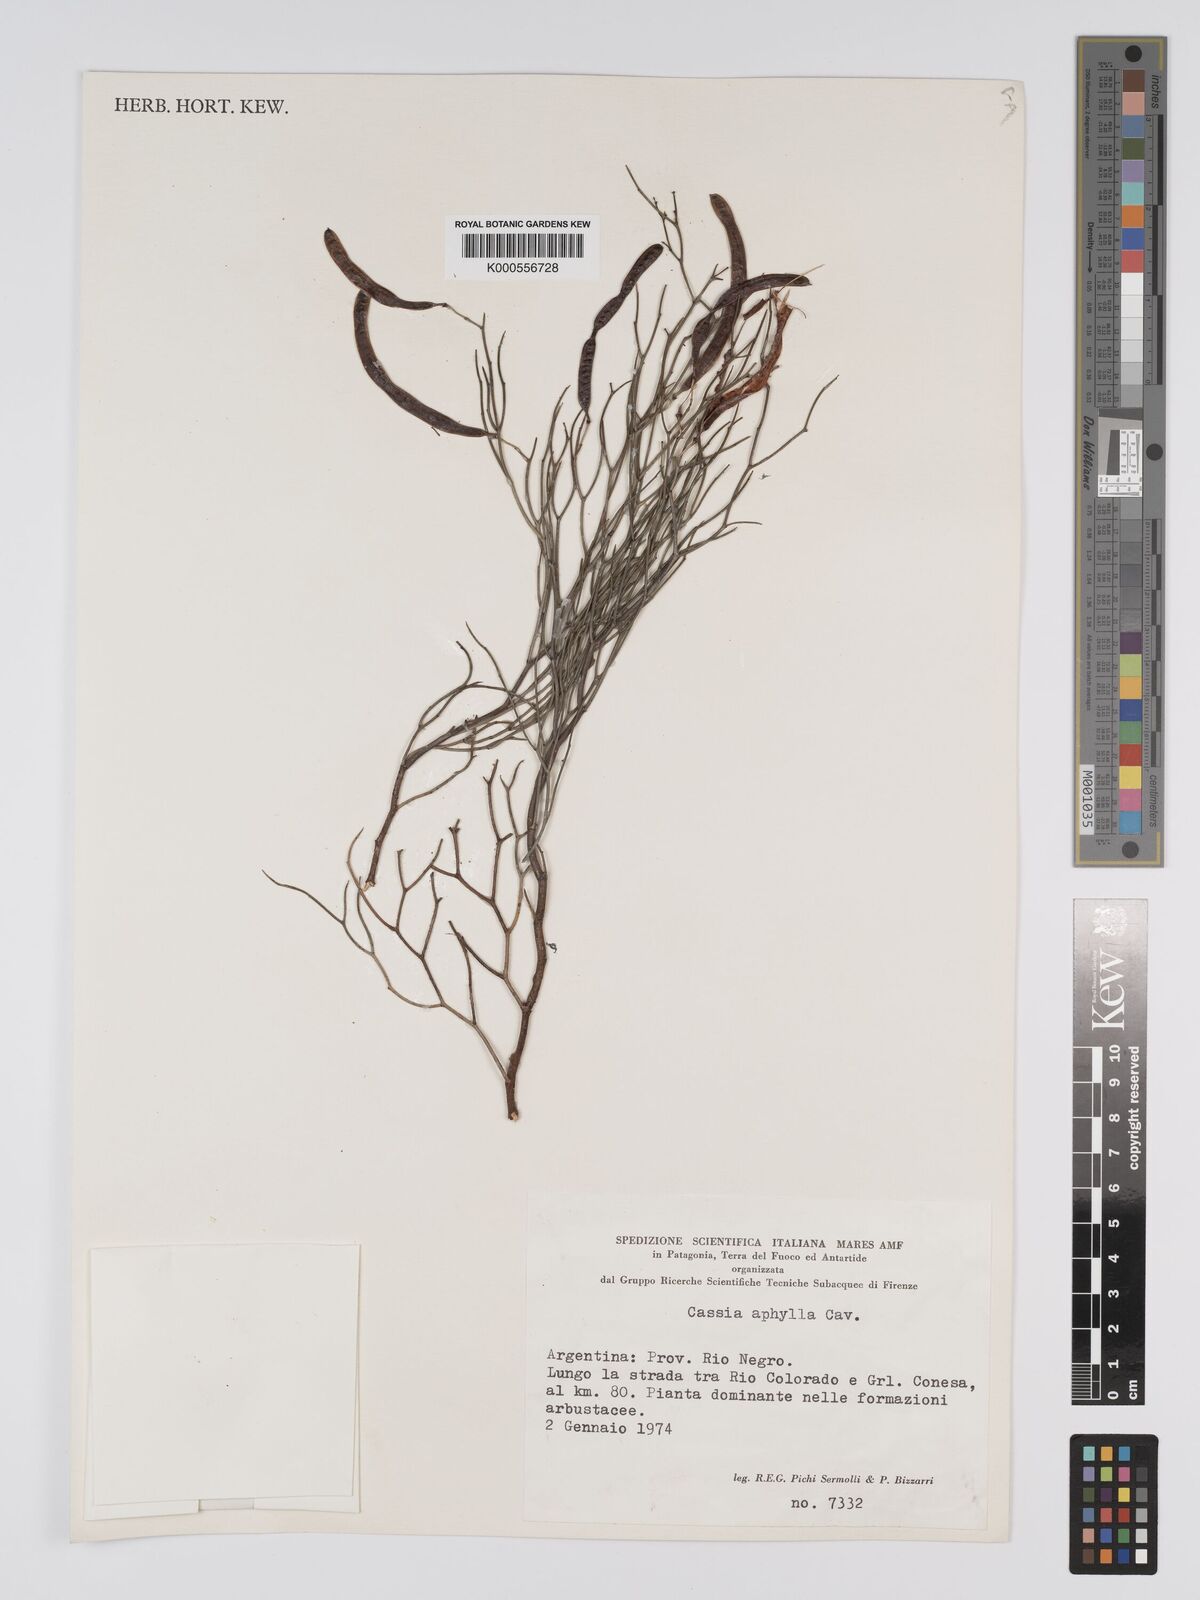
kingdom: Plantae
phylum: Tracheophyta
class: Magnoliopsida
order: Fabales
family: Fabaceae
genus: Senna
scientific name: Senna aphylla
